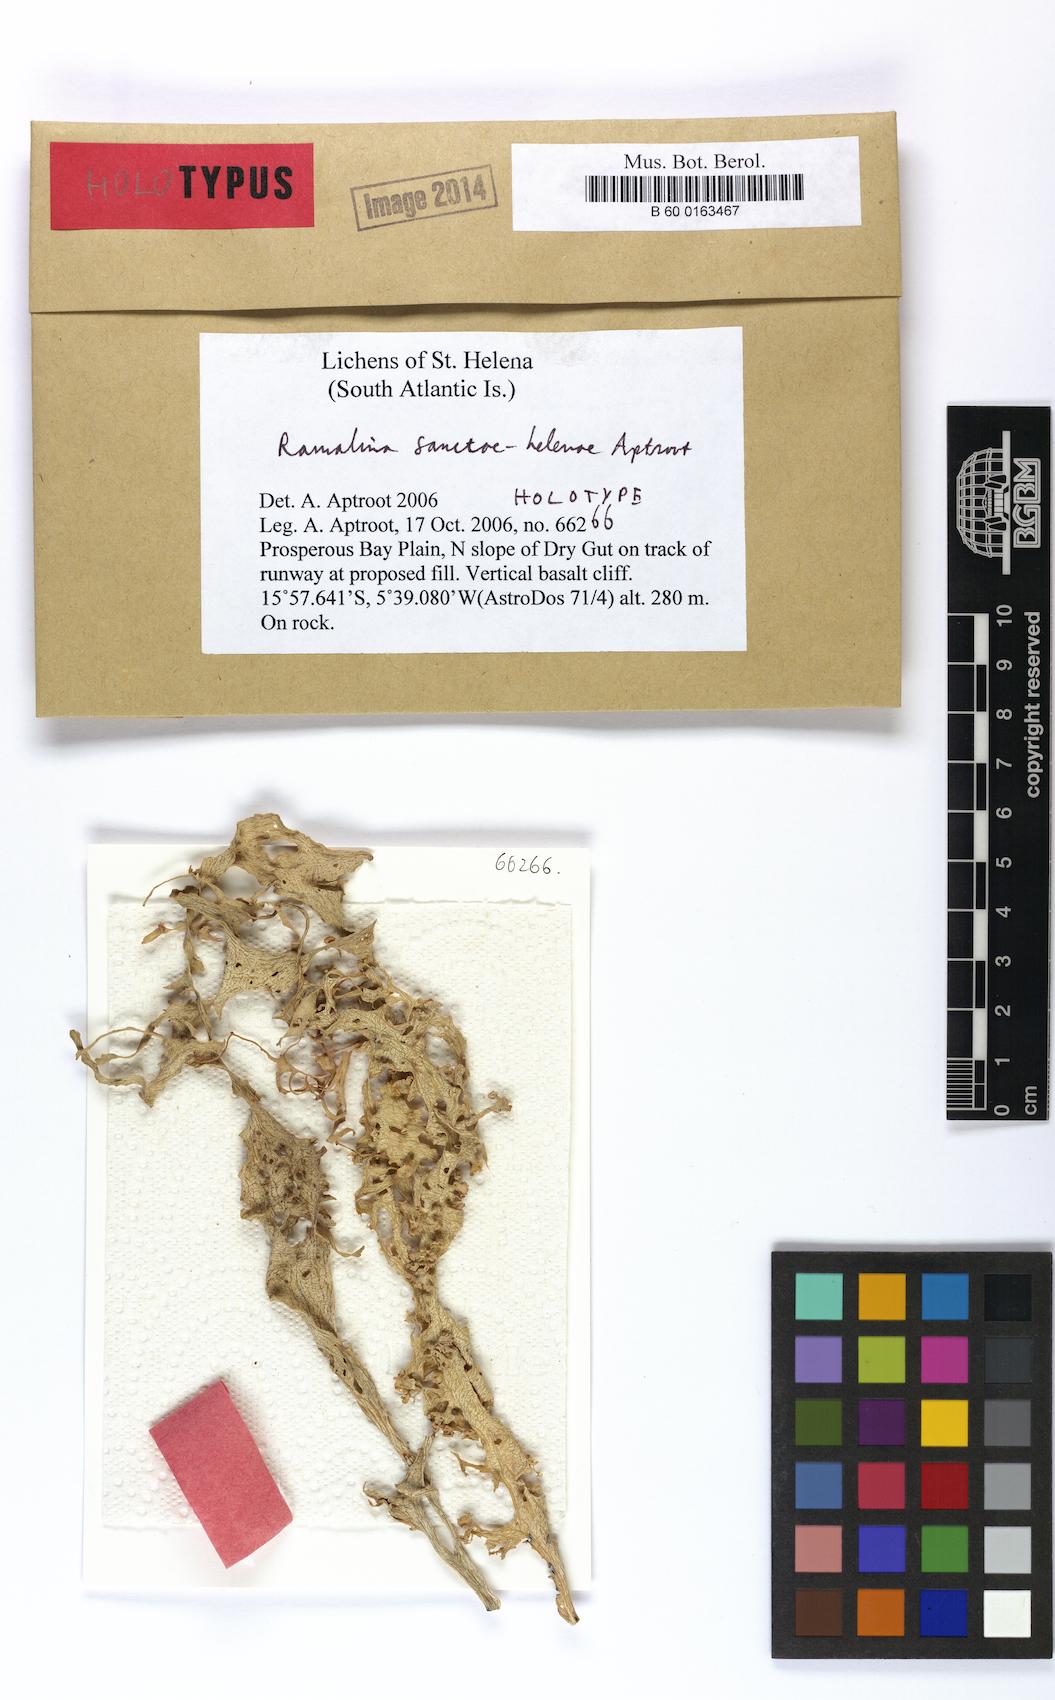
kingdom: Fungi
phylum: Ascomycota
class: Lecanoromycetes
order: Lecanorales
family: Ramalinaceae
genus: Ramalina
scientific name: Ramalina sanctae-helenae
